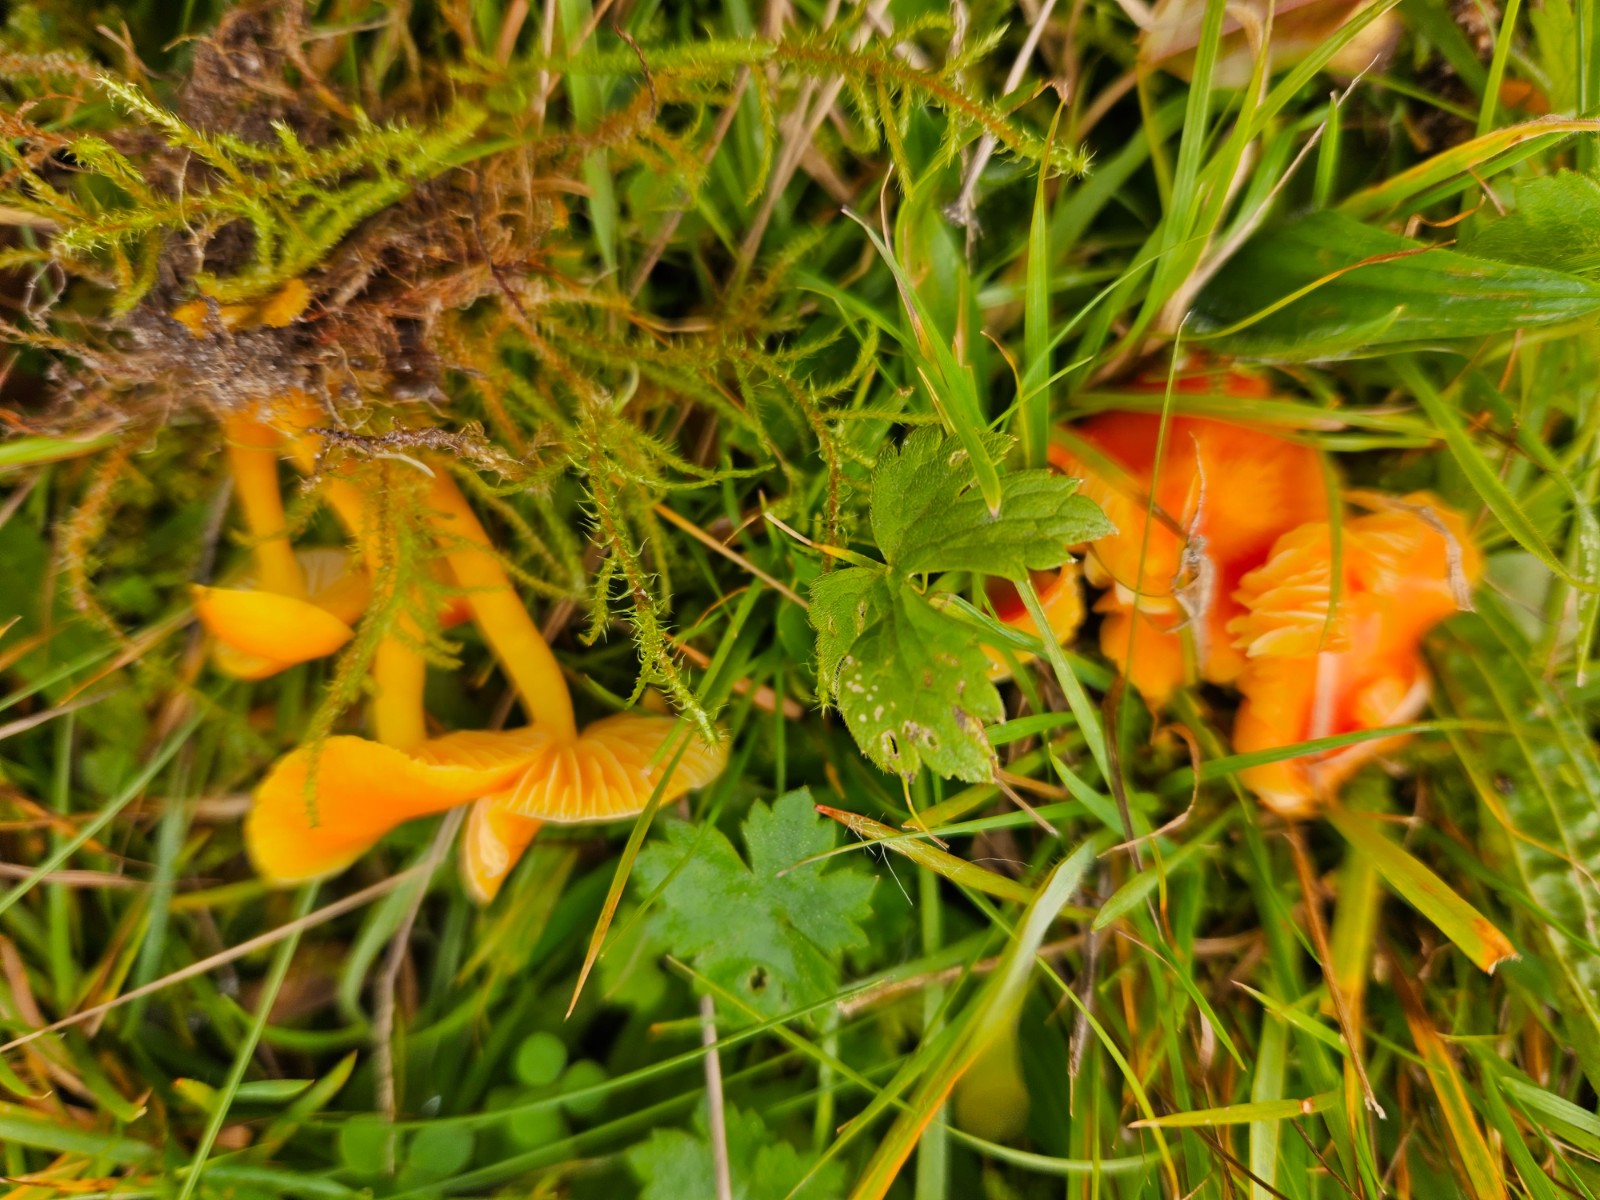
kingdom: Fungi
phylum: Basidiomycota
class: Agaricomycetes
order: Agaricales
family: Hygrophoraceae
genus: Hygrocybe
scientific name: Hygrocybe ceracea
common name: voksgul vokshat
